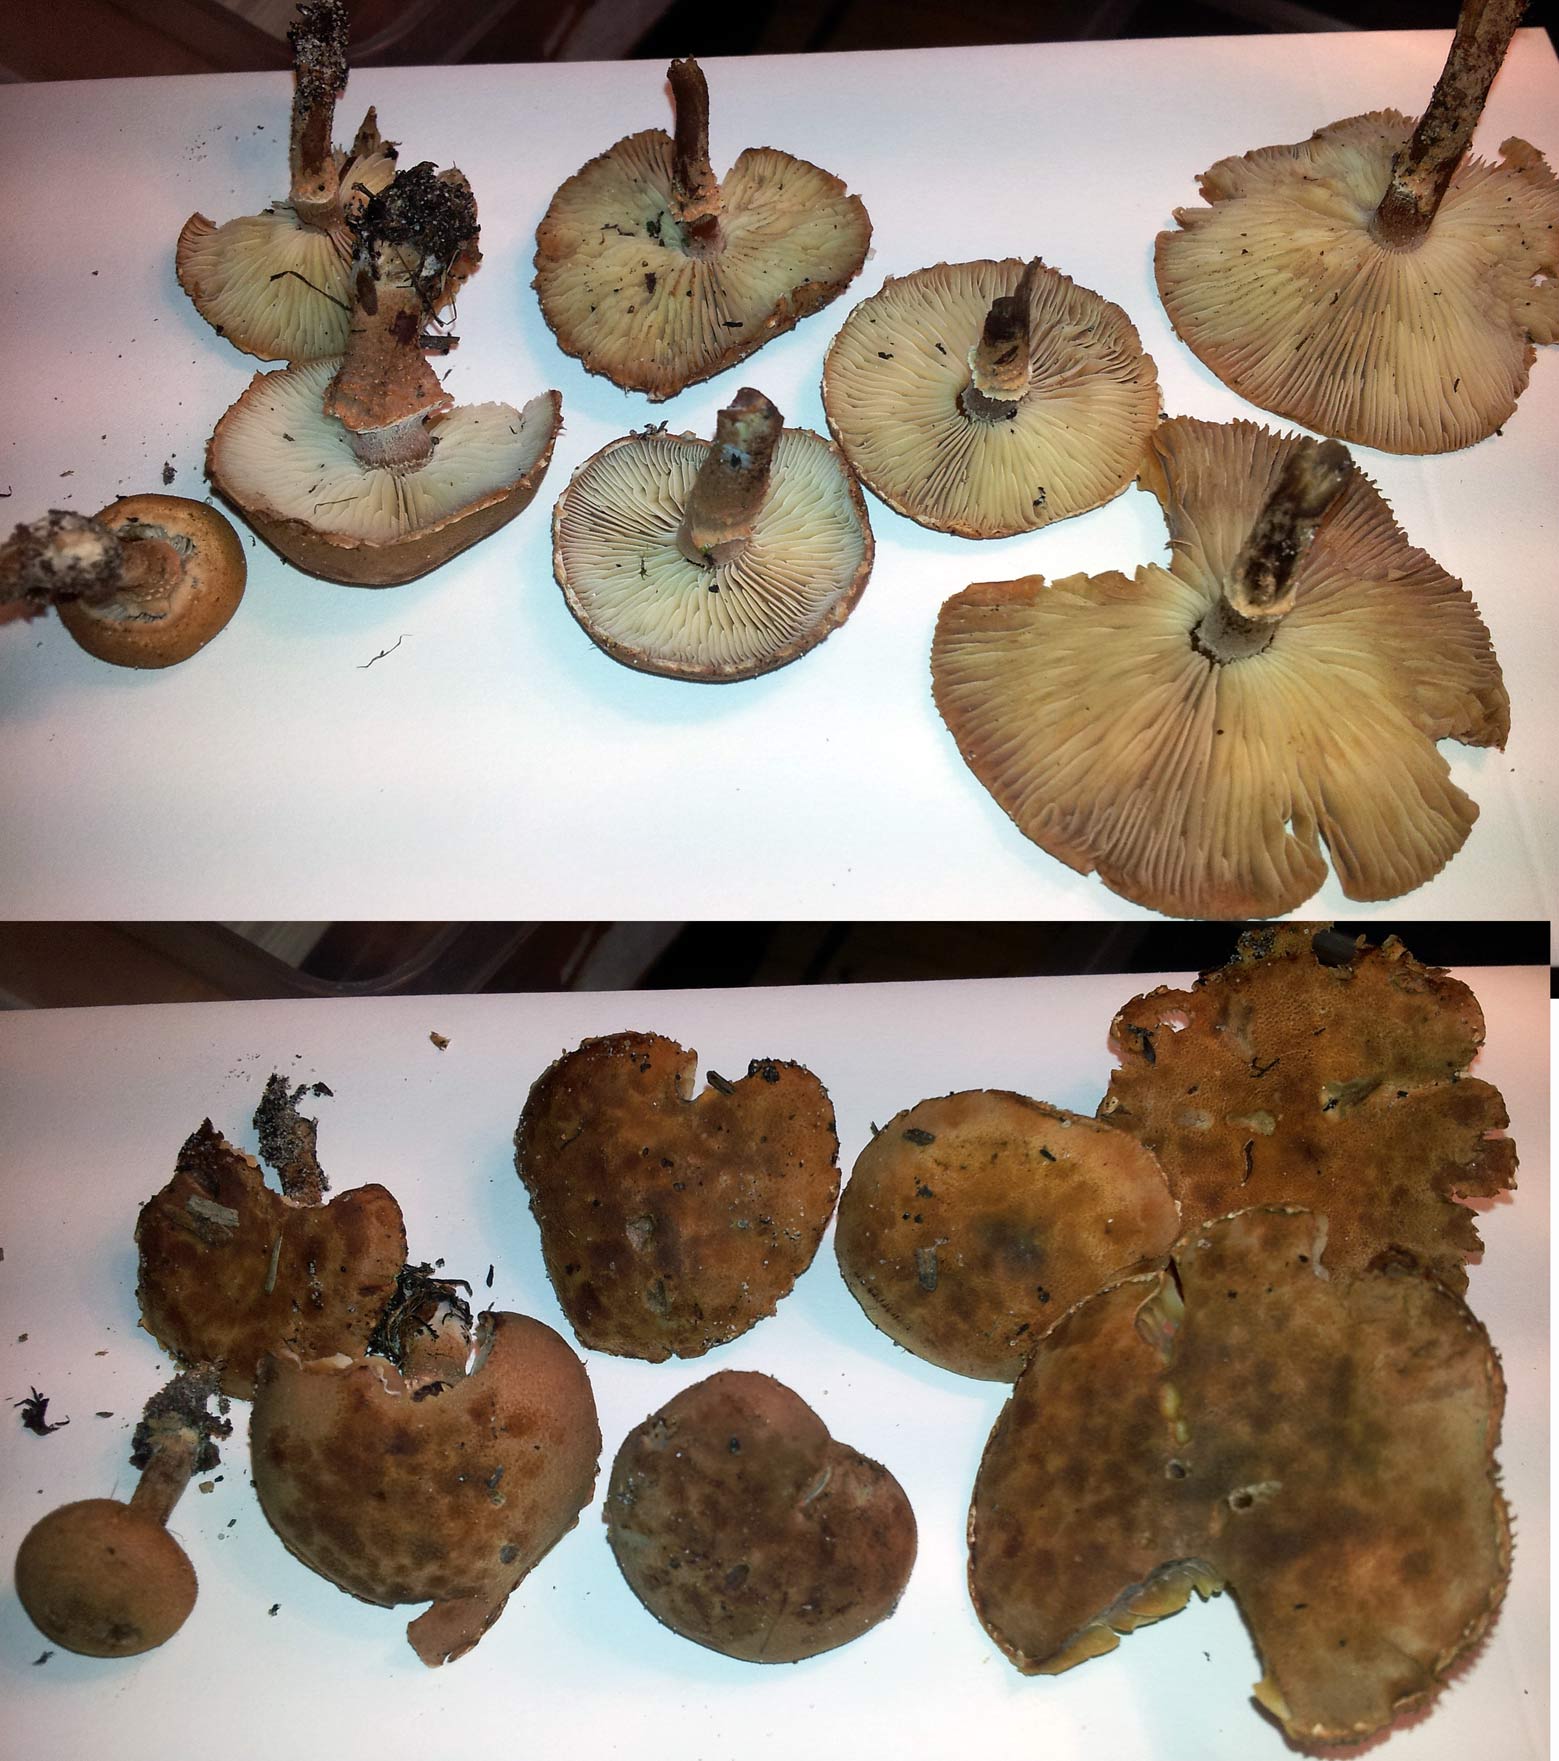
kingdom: Fungi
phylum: Basidiomycota
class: Agaricomycetes
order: Agaricales
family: Agaricaceae
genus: Cystodermella
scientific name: Cystodermella granulosa
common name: kliddet grynhat
